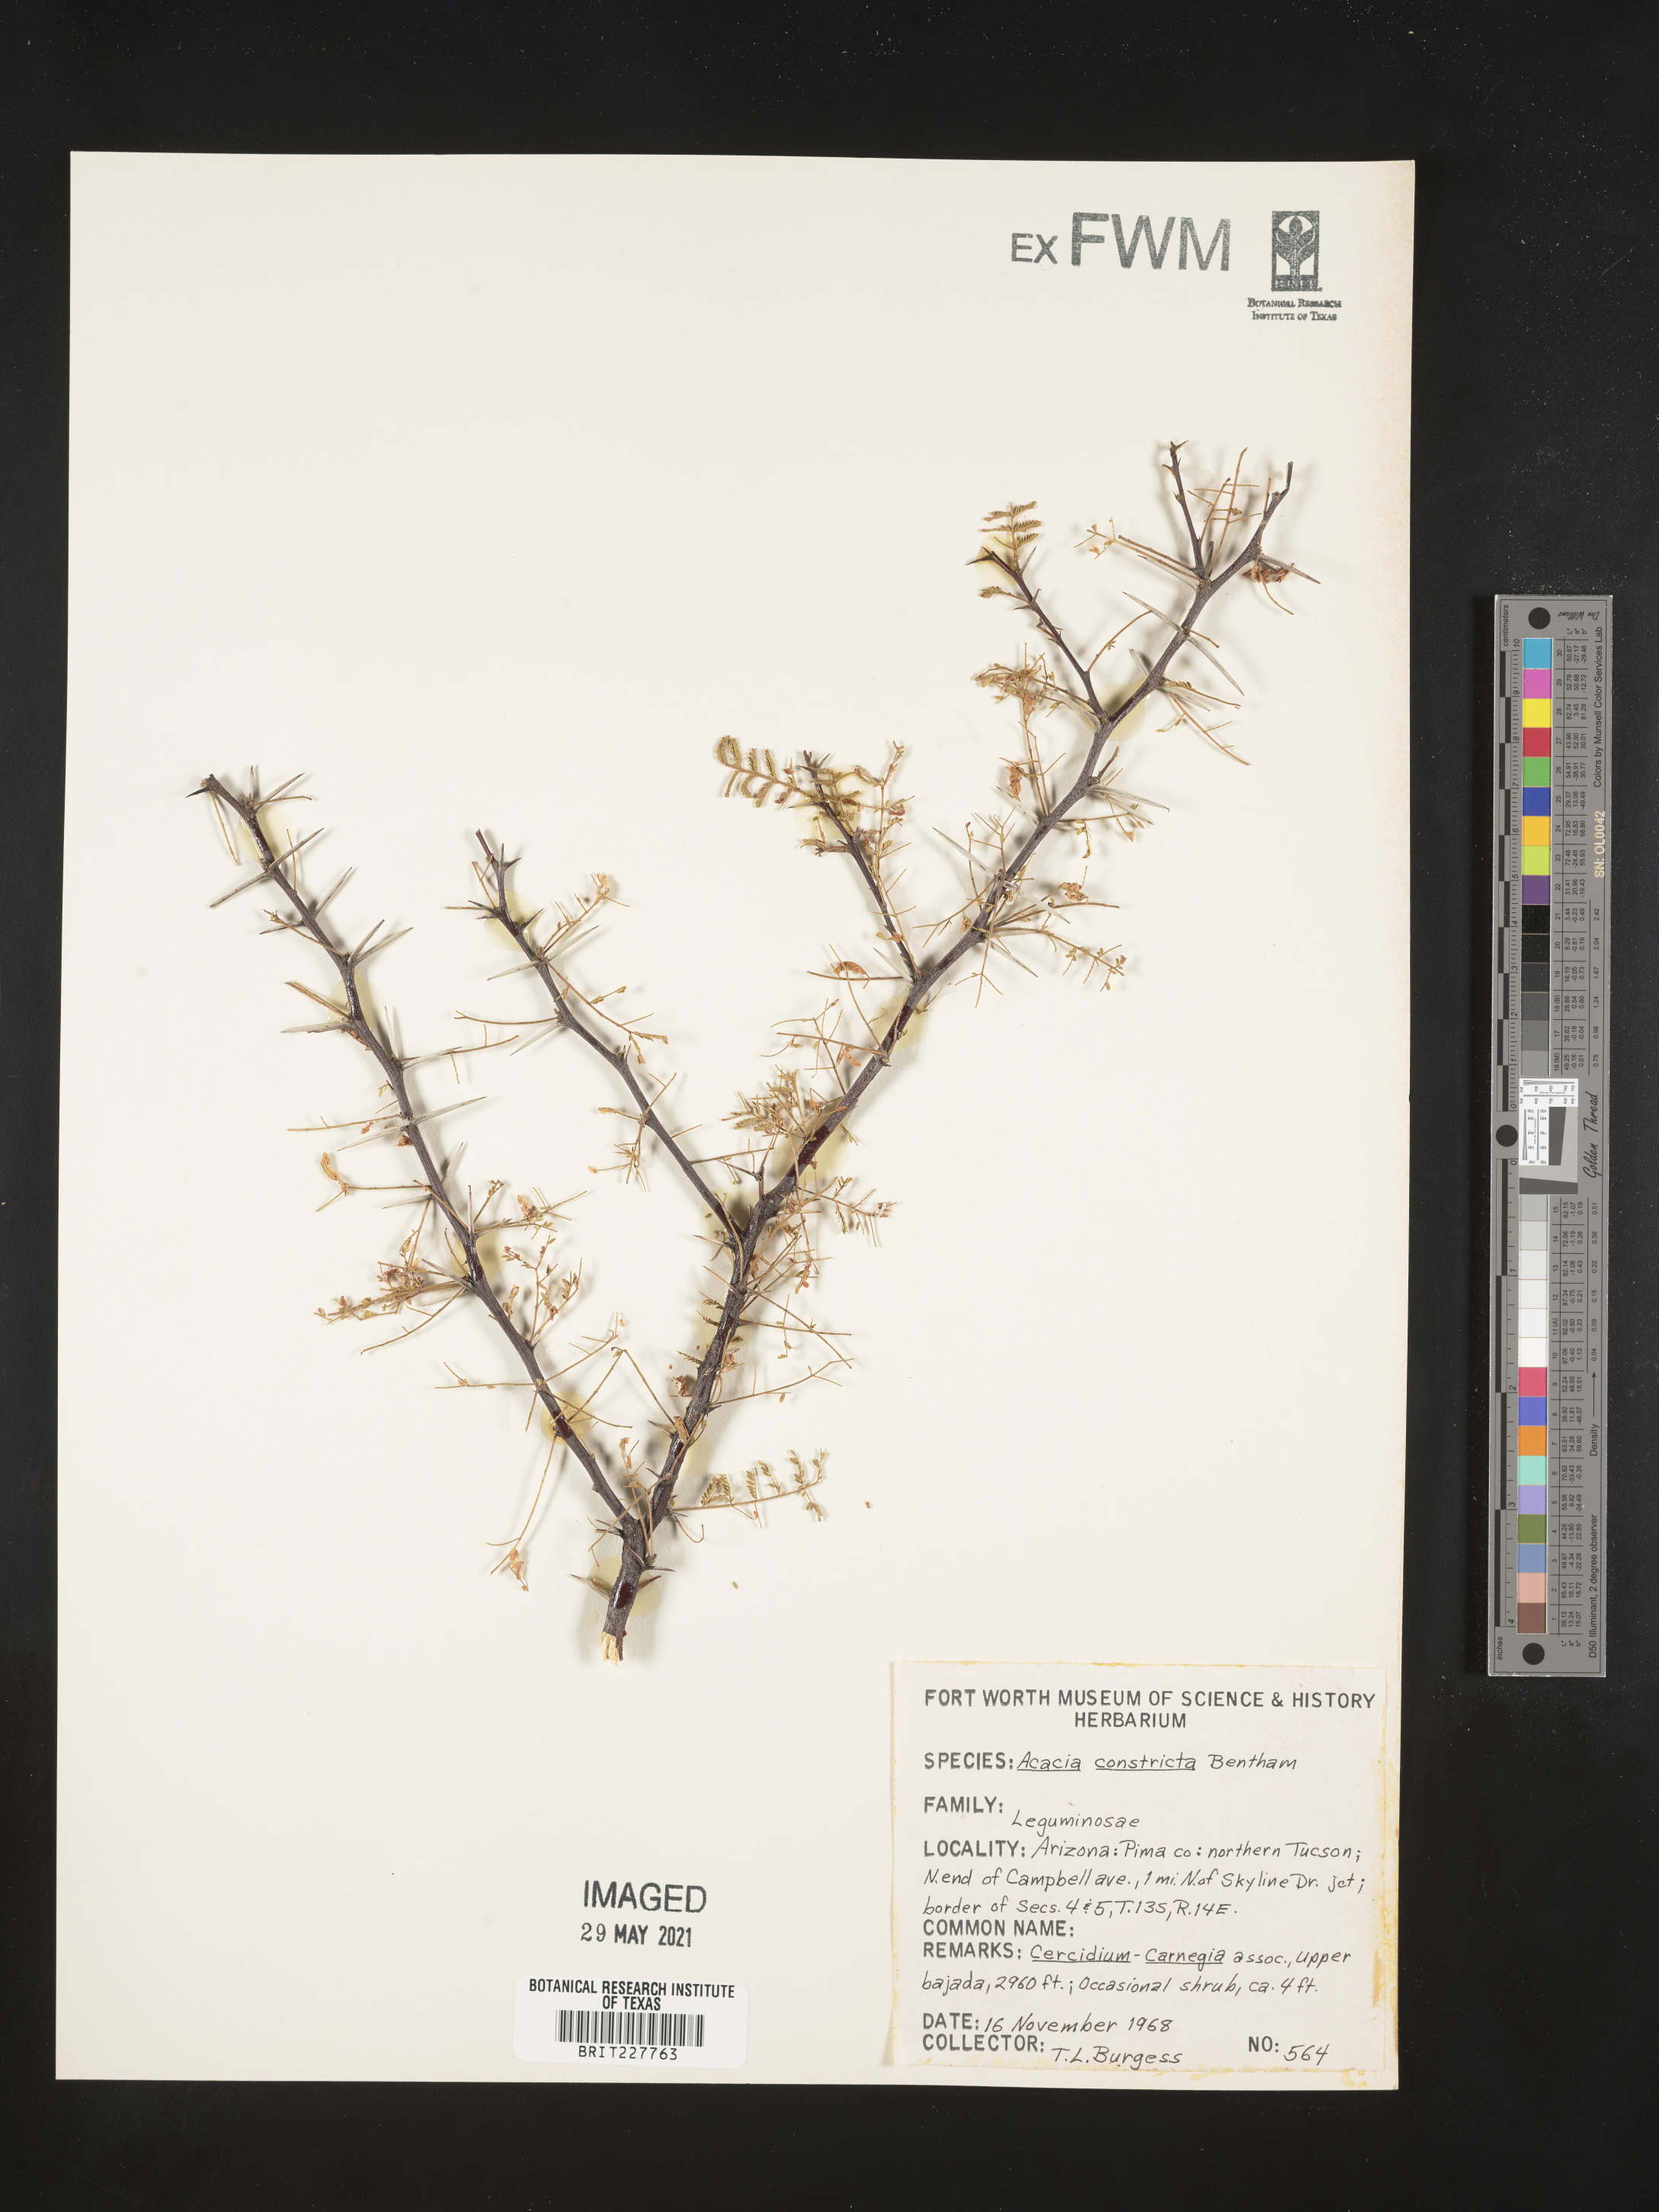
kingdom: Plantae
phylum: Tracheophyta
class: Magnoliopsida
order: Fabales
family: Fabaceae
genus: Vachellia
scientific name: Vachellia constricta
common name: Mescat acacia
